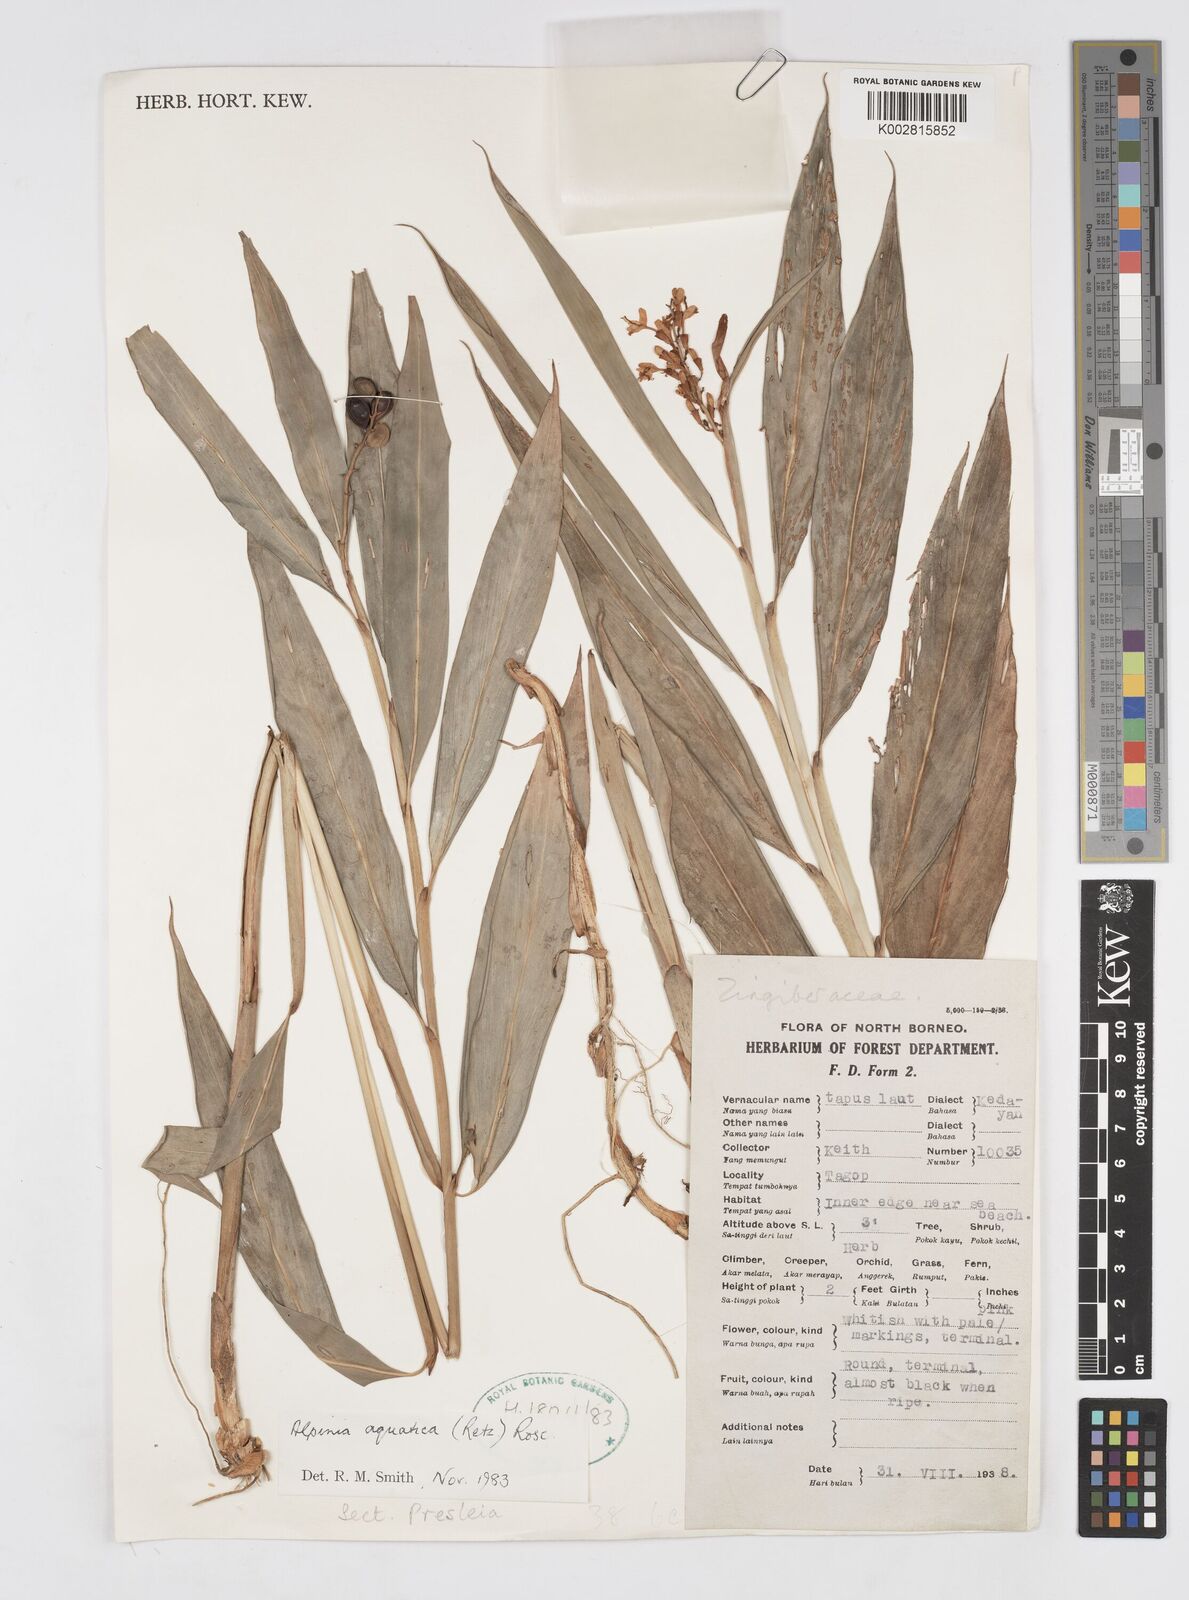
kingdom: Plantae
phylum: Tracheophyta
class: Liliopsida
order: Zingiberales
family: Zingiberaceae
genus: Alpinia
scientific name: Alpinia aquatica
